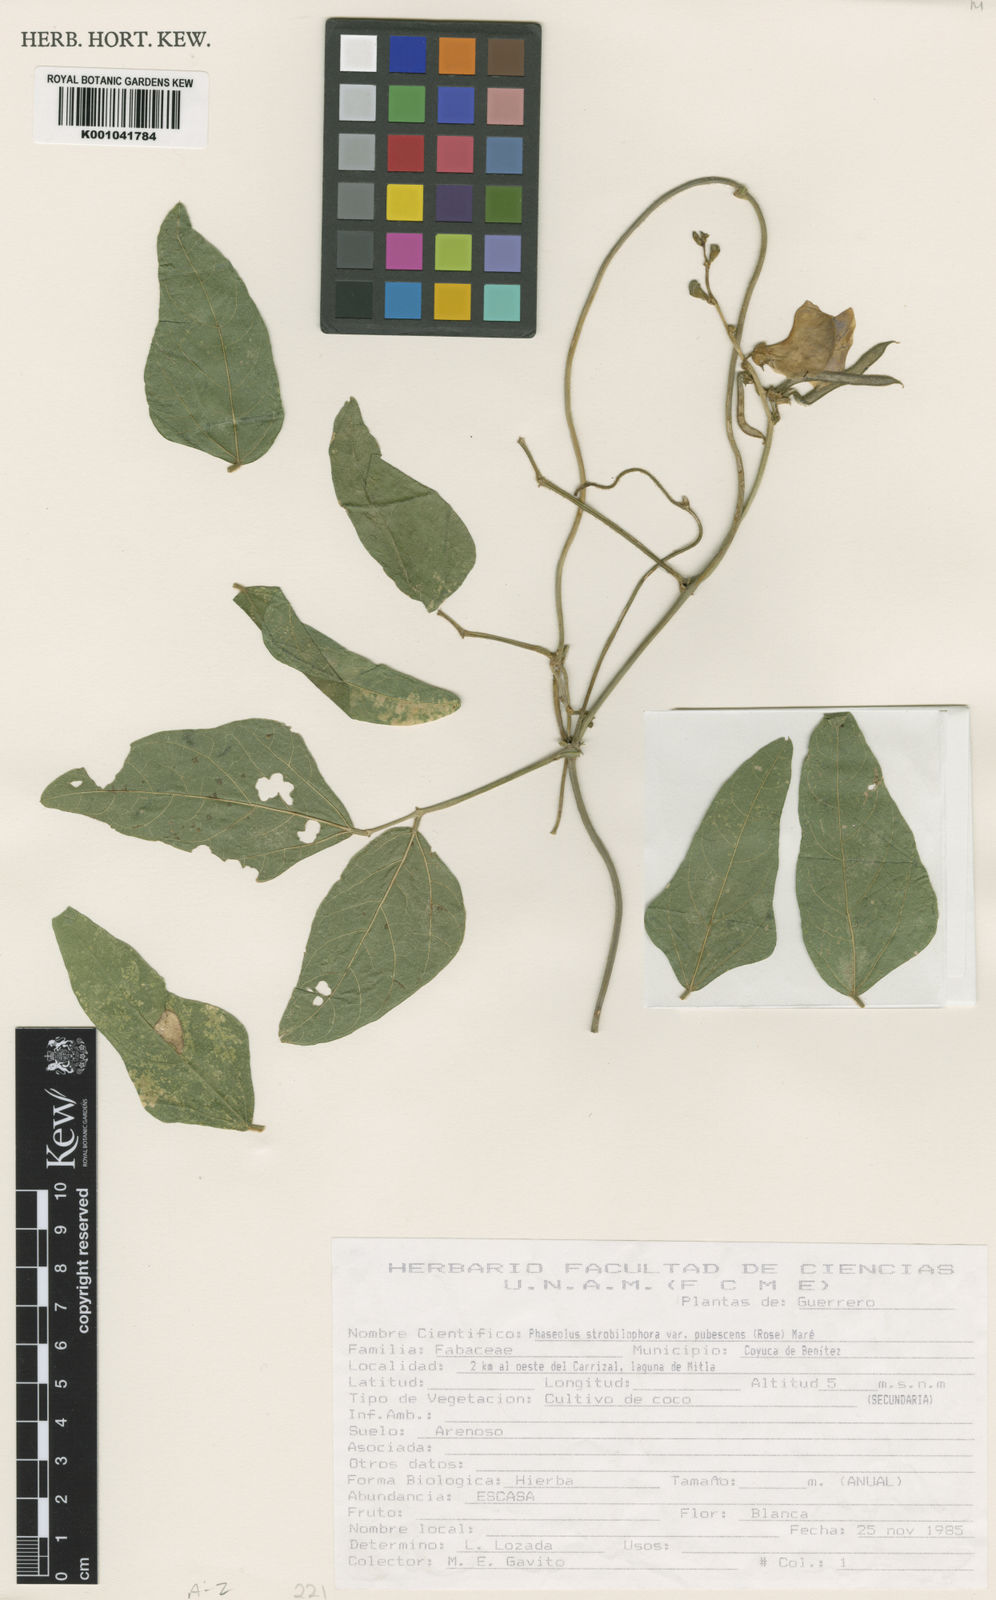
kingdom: Plantae
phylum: Tracheophyta
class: Magnoliopsida
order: Fabales
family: Fabaceae
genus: Ramirezella
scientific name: Ramirezella strobilophora
